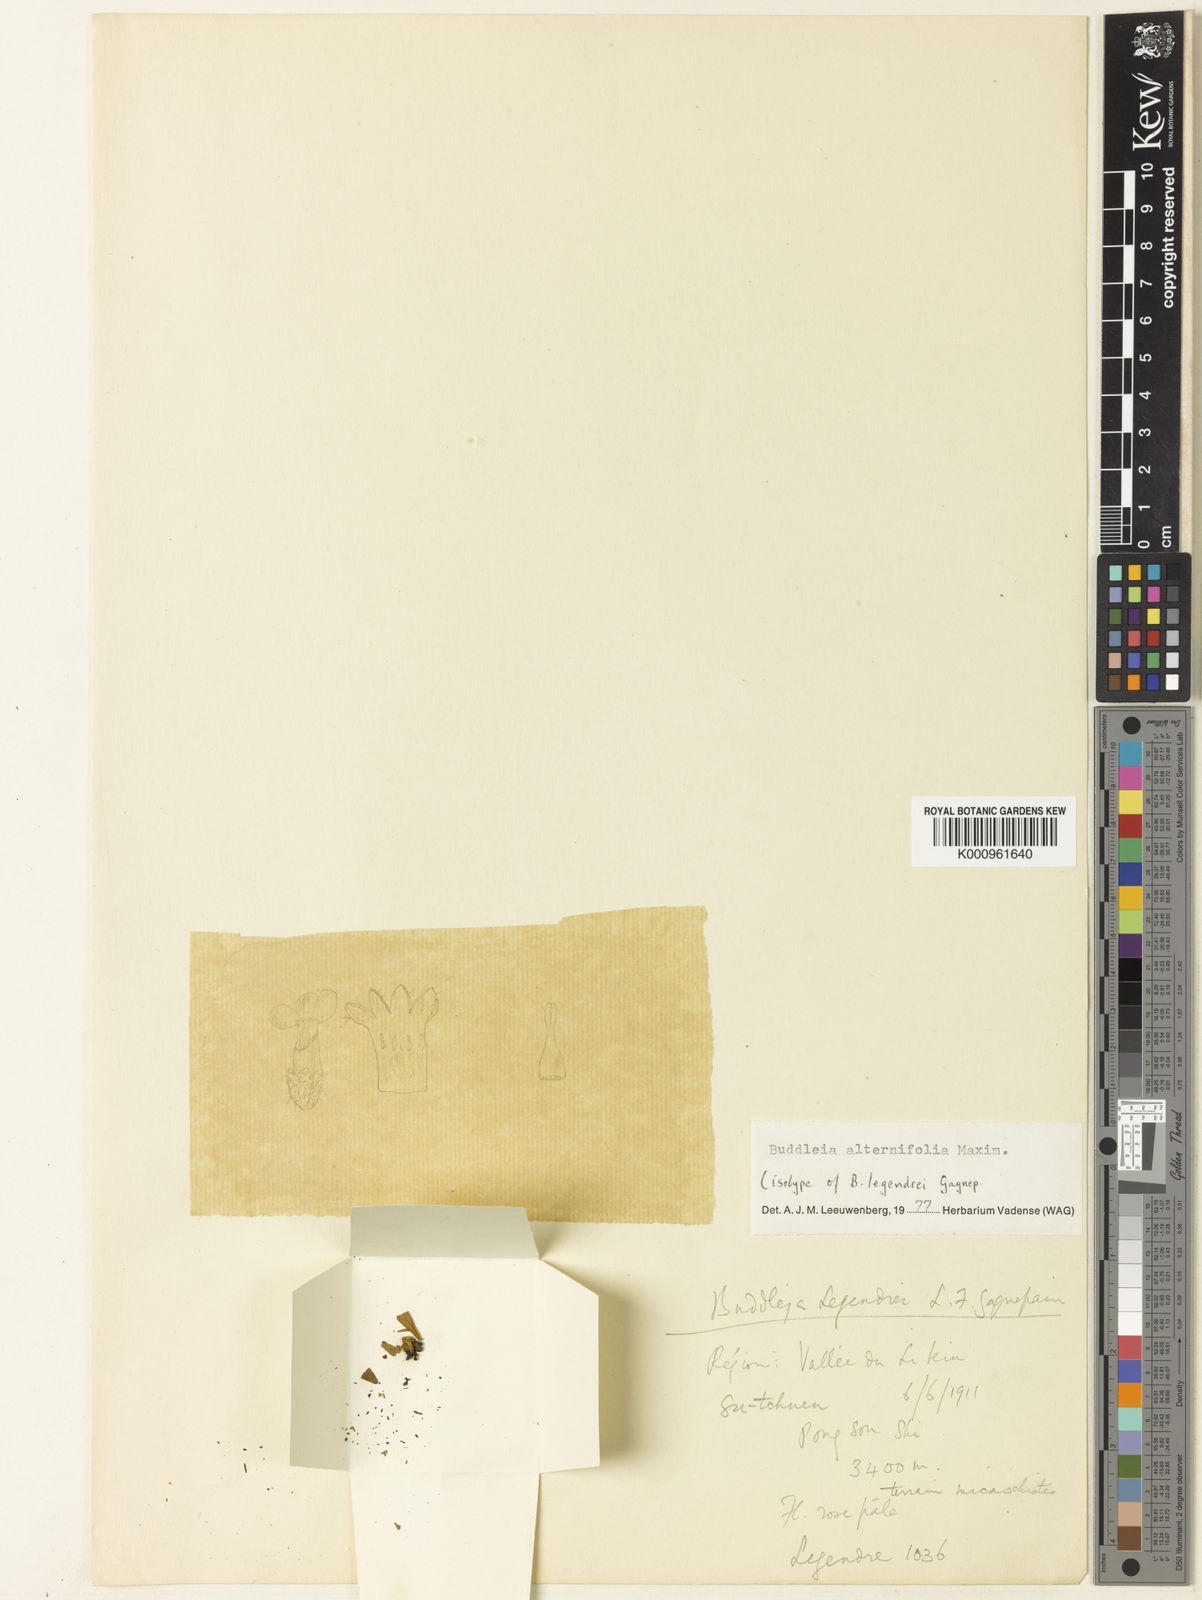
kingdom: Plantae
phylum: Tracheophyta
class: Magnoliopsida
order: Lamiales
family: Scrophulariaceae
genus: Buddleja
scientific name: Buddleja alternifolia
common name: Alternate-leaved butterfly-bush
